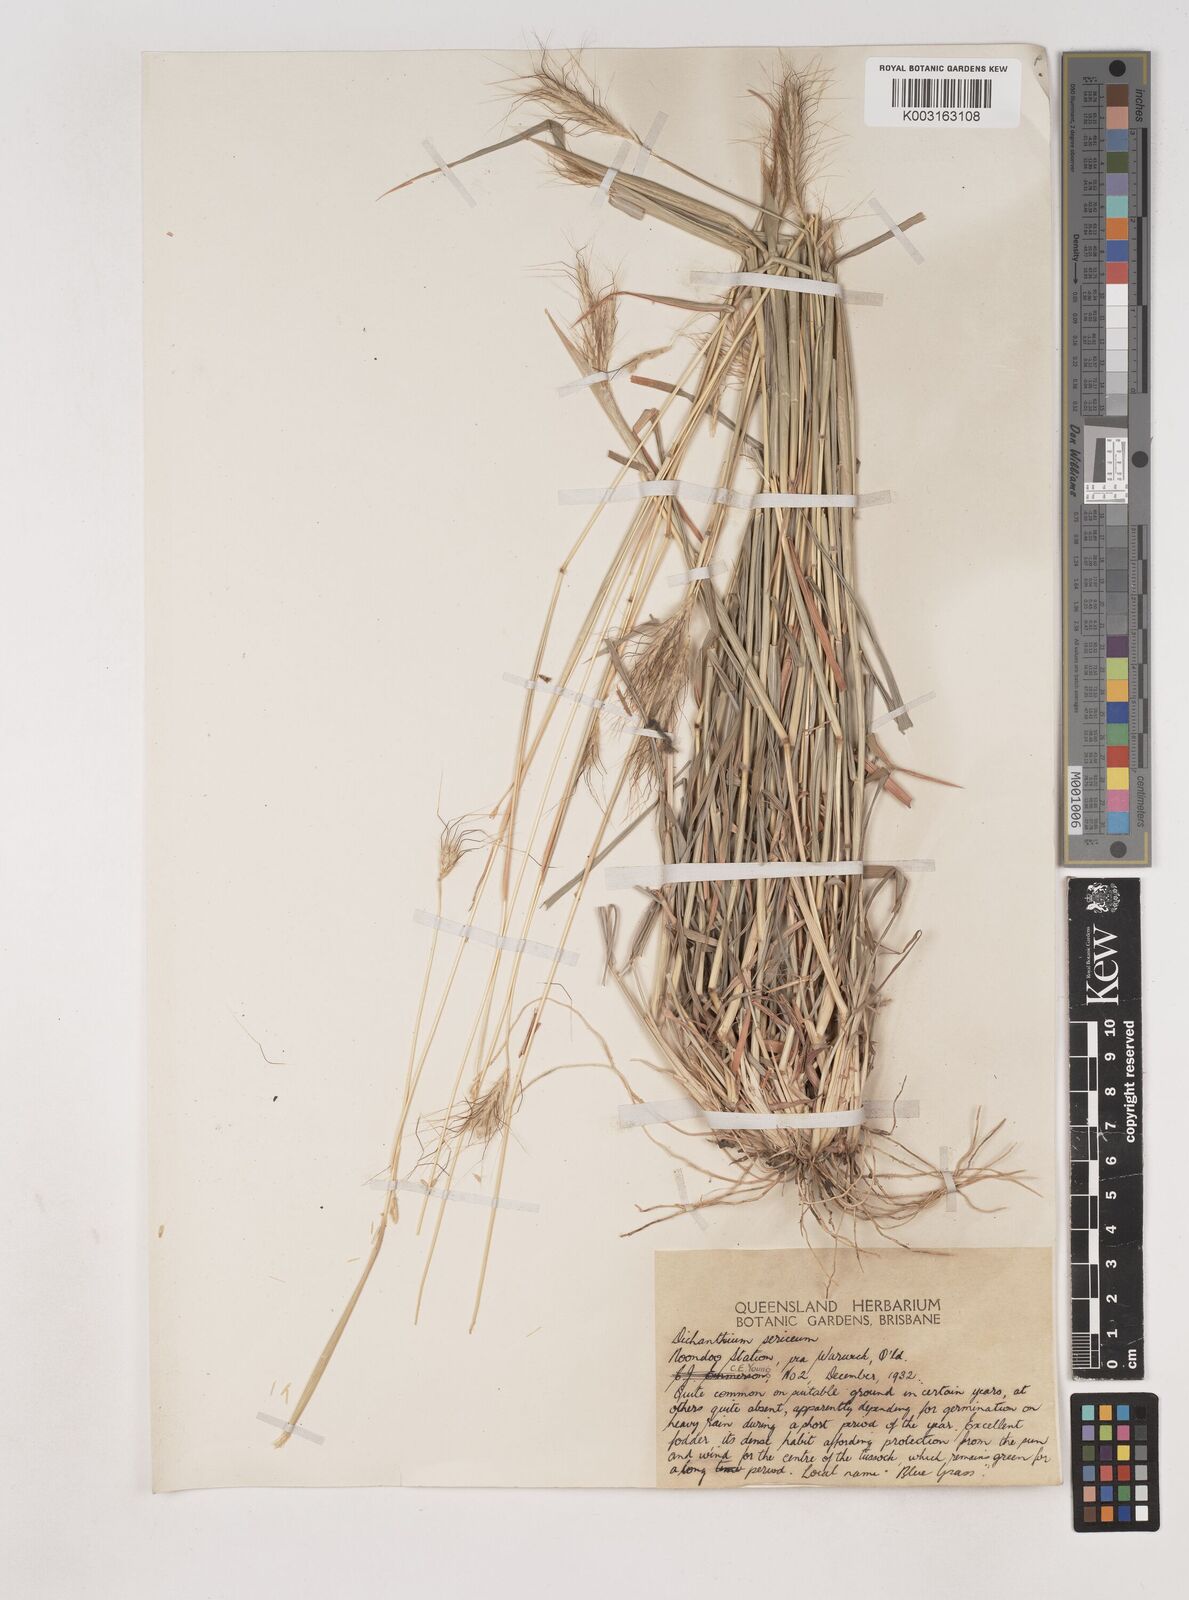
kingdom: Plantae
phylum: Tracheophyta
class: Liliopsida
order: Poales
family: Poaceae
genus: Dichanthium
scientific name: Dichanthium sericeum
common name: Silky bluestem
